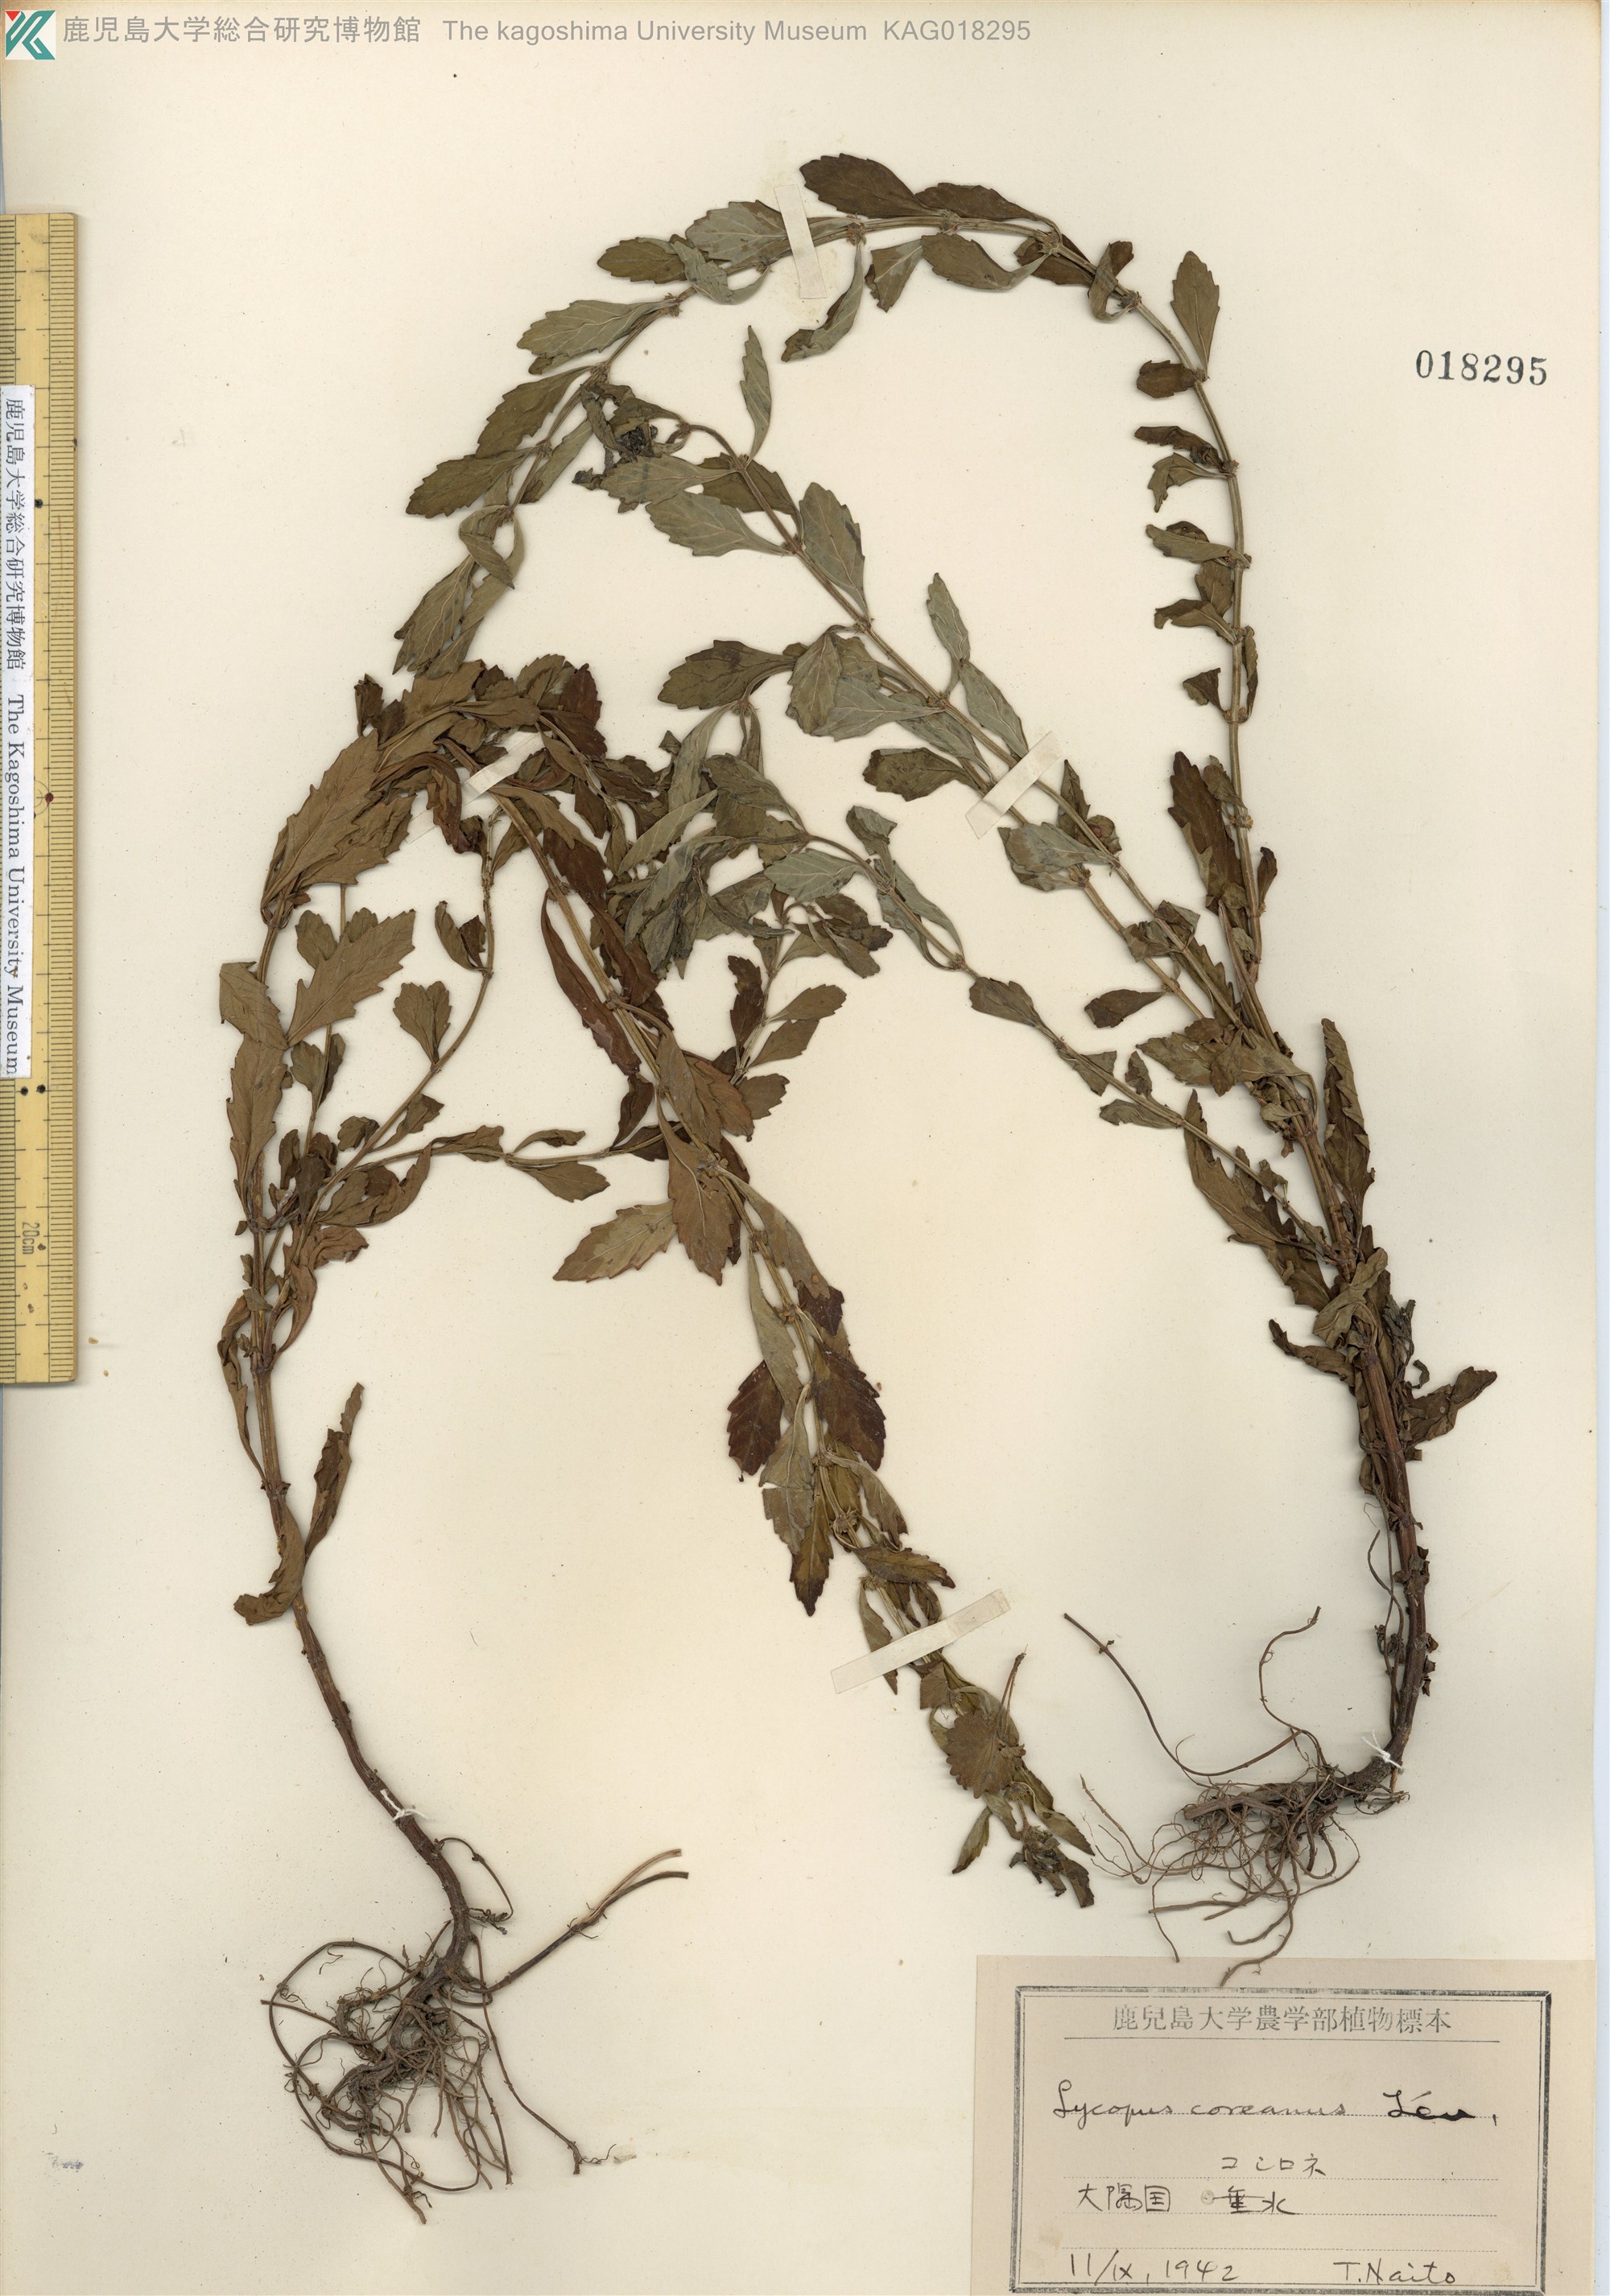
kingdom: Plantae
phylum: Tracheophyta
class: Magnoliopsida
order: Lamiales
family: Lamiaceae
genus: Lycopus
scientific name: Lycopus cavaleriei
